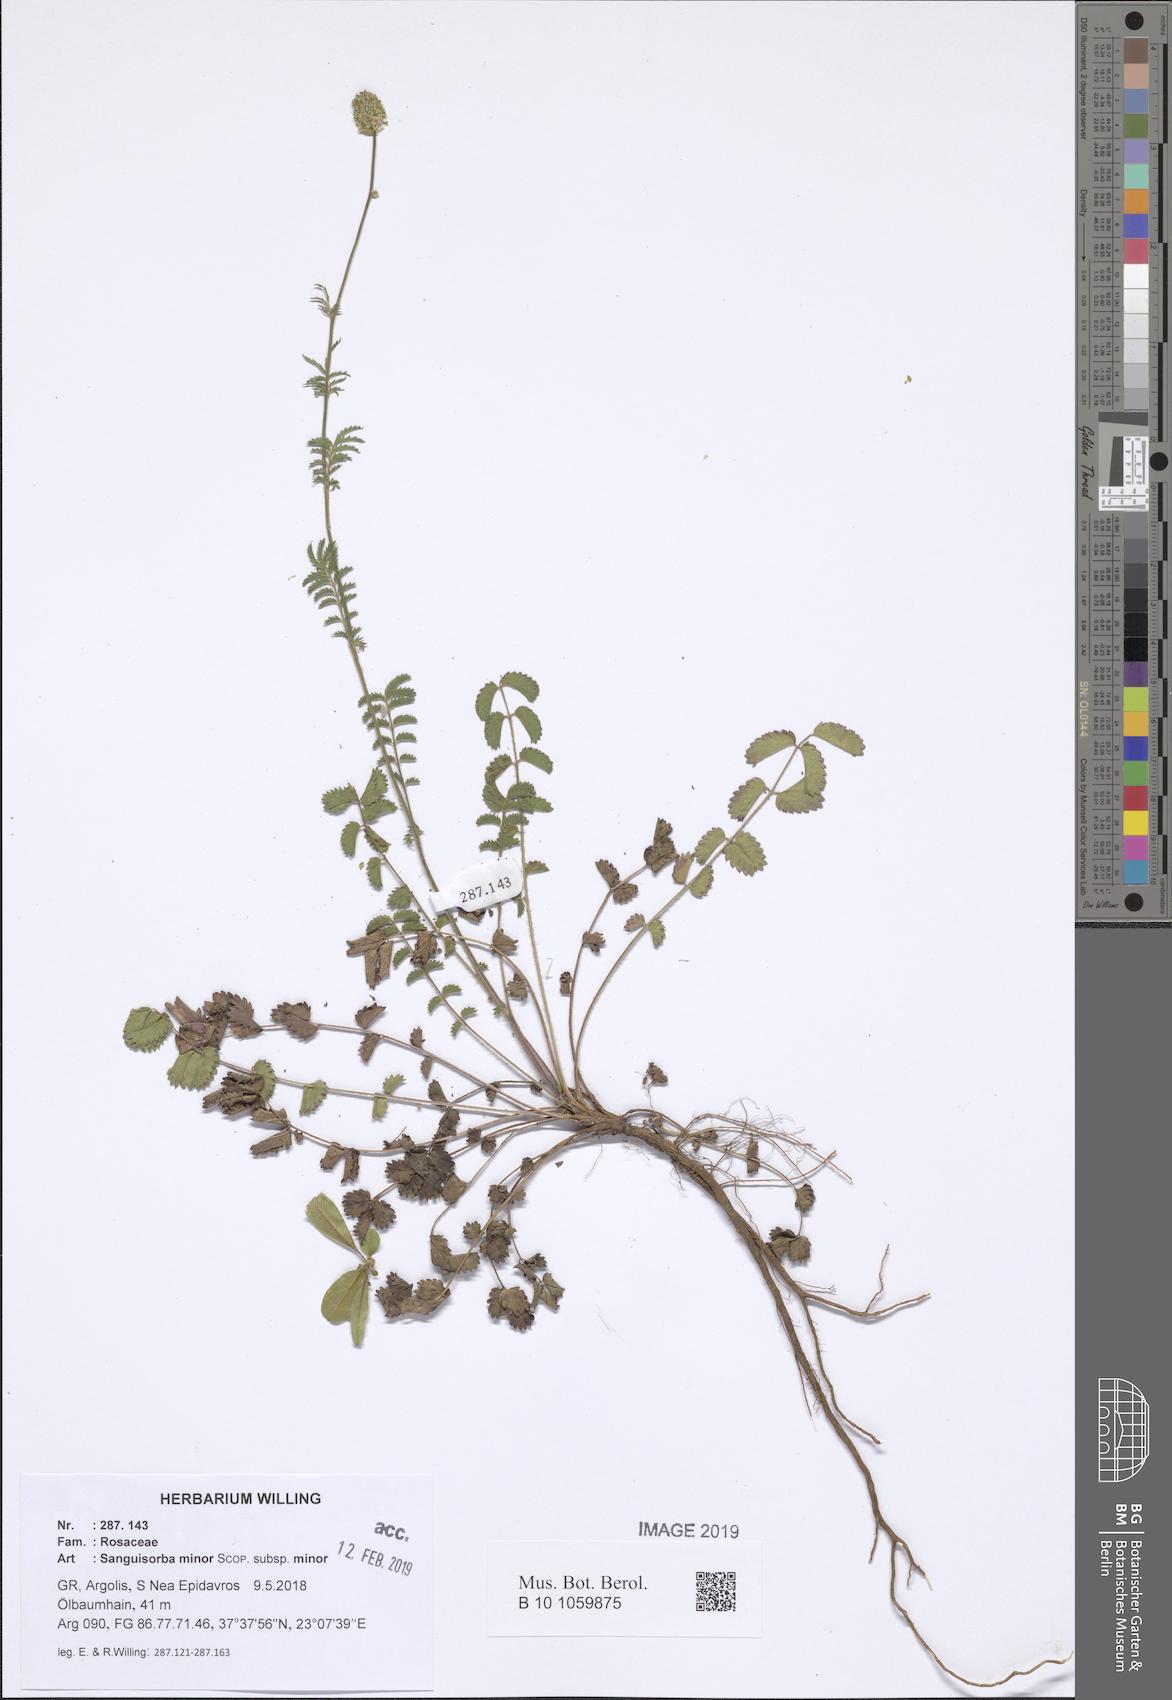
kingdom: Plantae
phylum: Tracheophyta
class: Magnoliopsida
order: Rosales
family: Rosaceae
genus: Poterium
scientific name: Poterium sanguisorba
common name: Salad burnet
